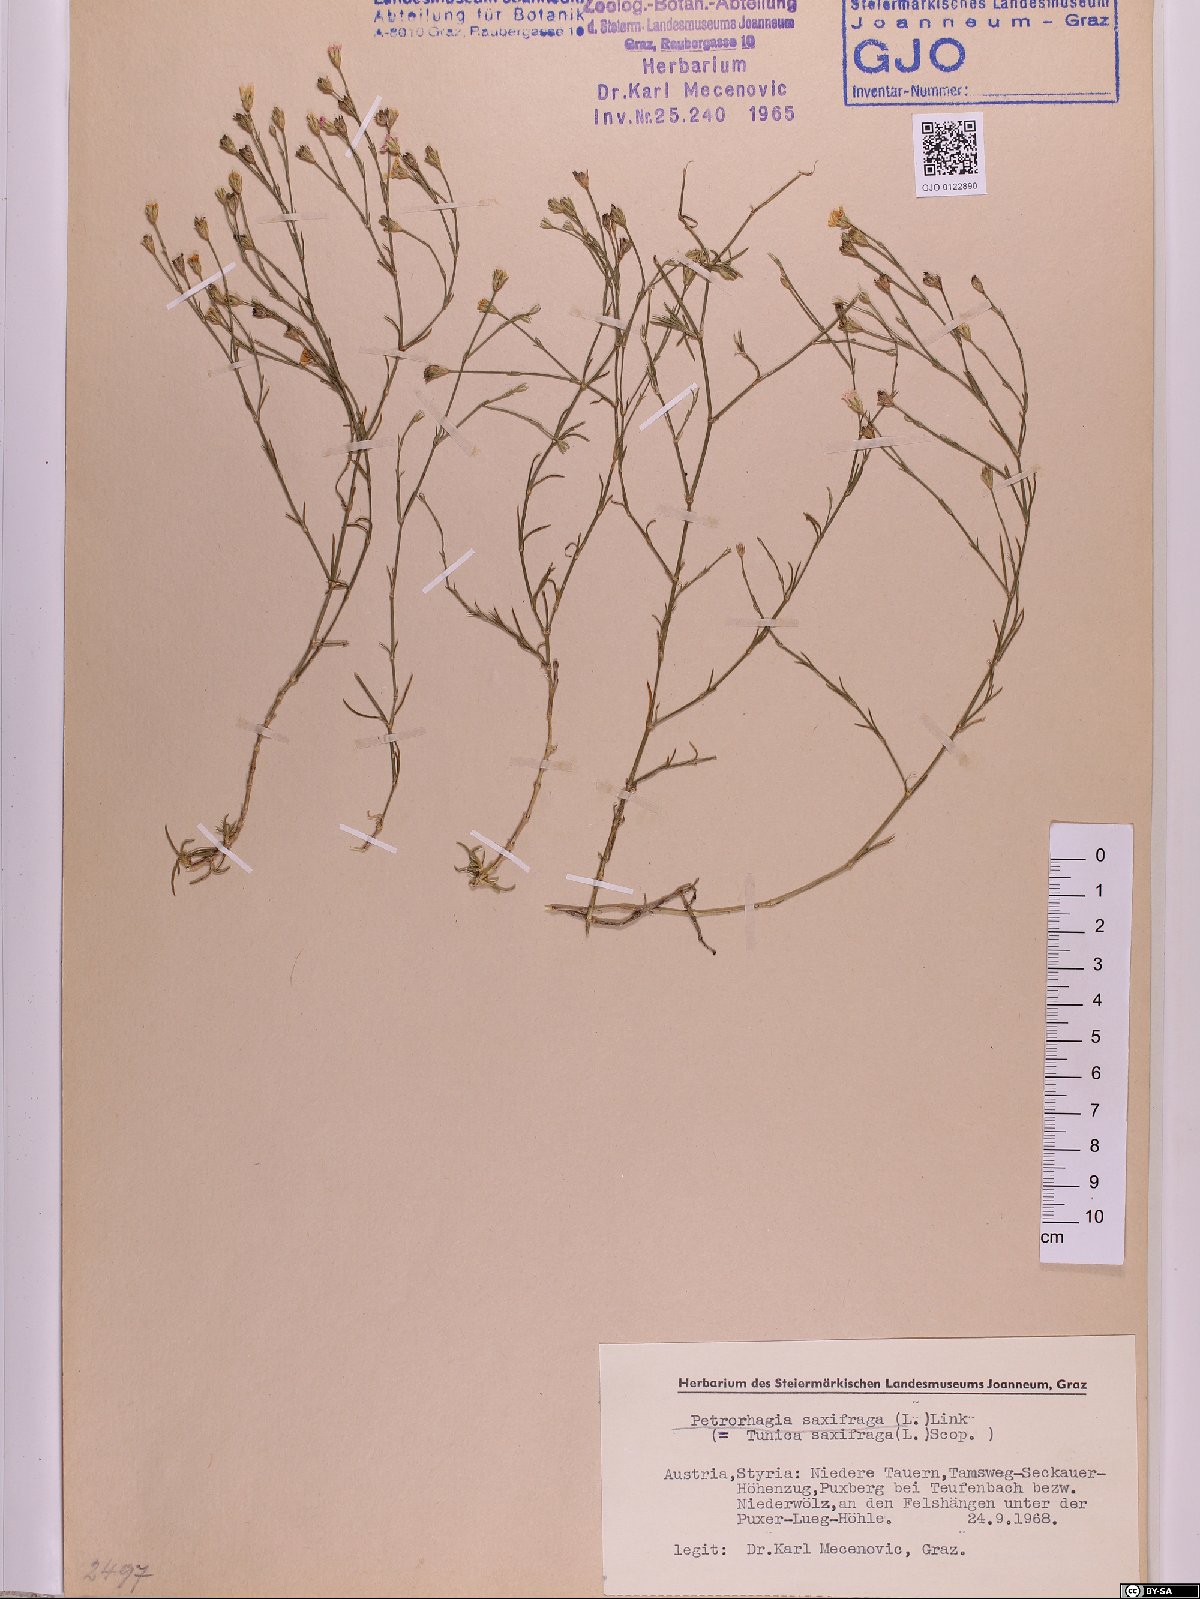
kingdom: Plantae
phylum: Tracheophyta
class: Magnoliopsida
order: Caryophyllales
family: Caryophyllaceae
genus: Petrorhagia
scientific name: Petrorhagia saxifraga
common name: Tunicflower
